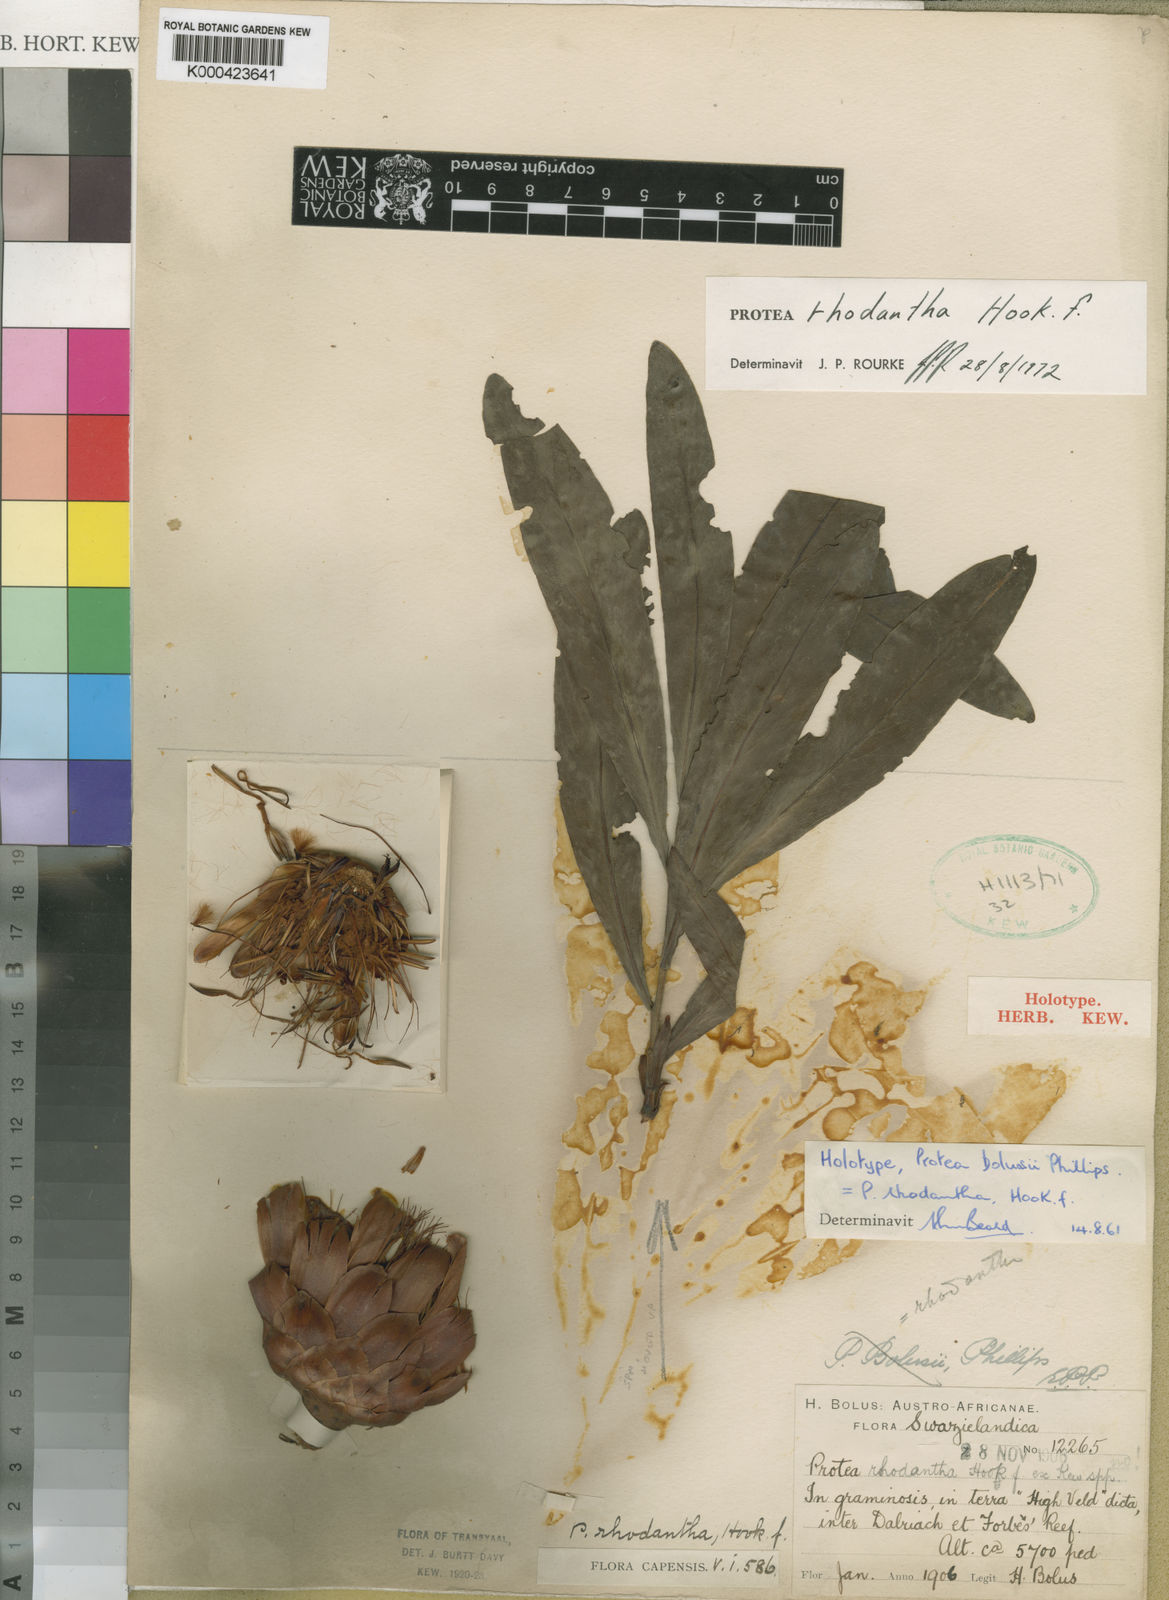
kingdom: Plantae
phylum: Tracheophyta
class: Magnoliopsida
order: Proteales
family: Proteaceae
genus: Protea
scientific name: Protea caffra
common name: Common sugarbush
